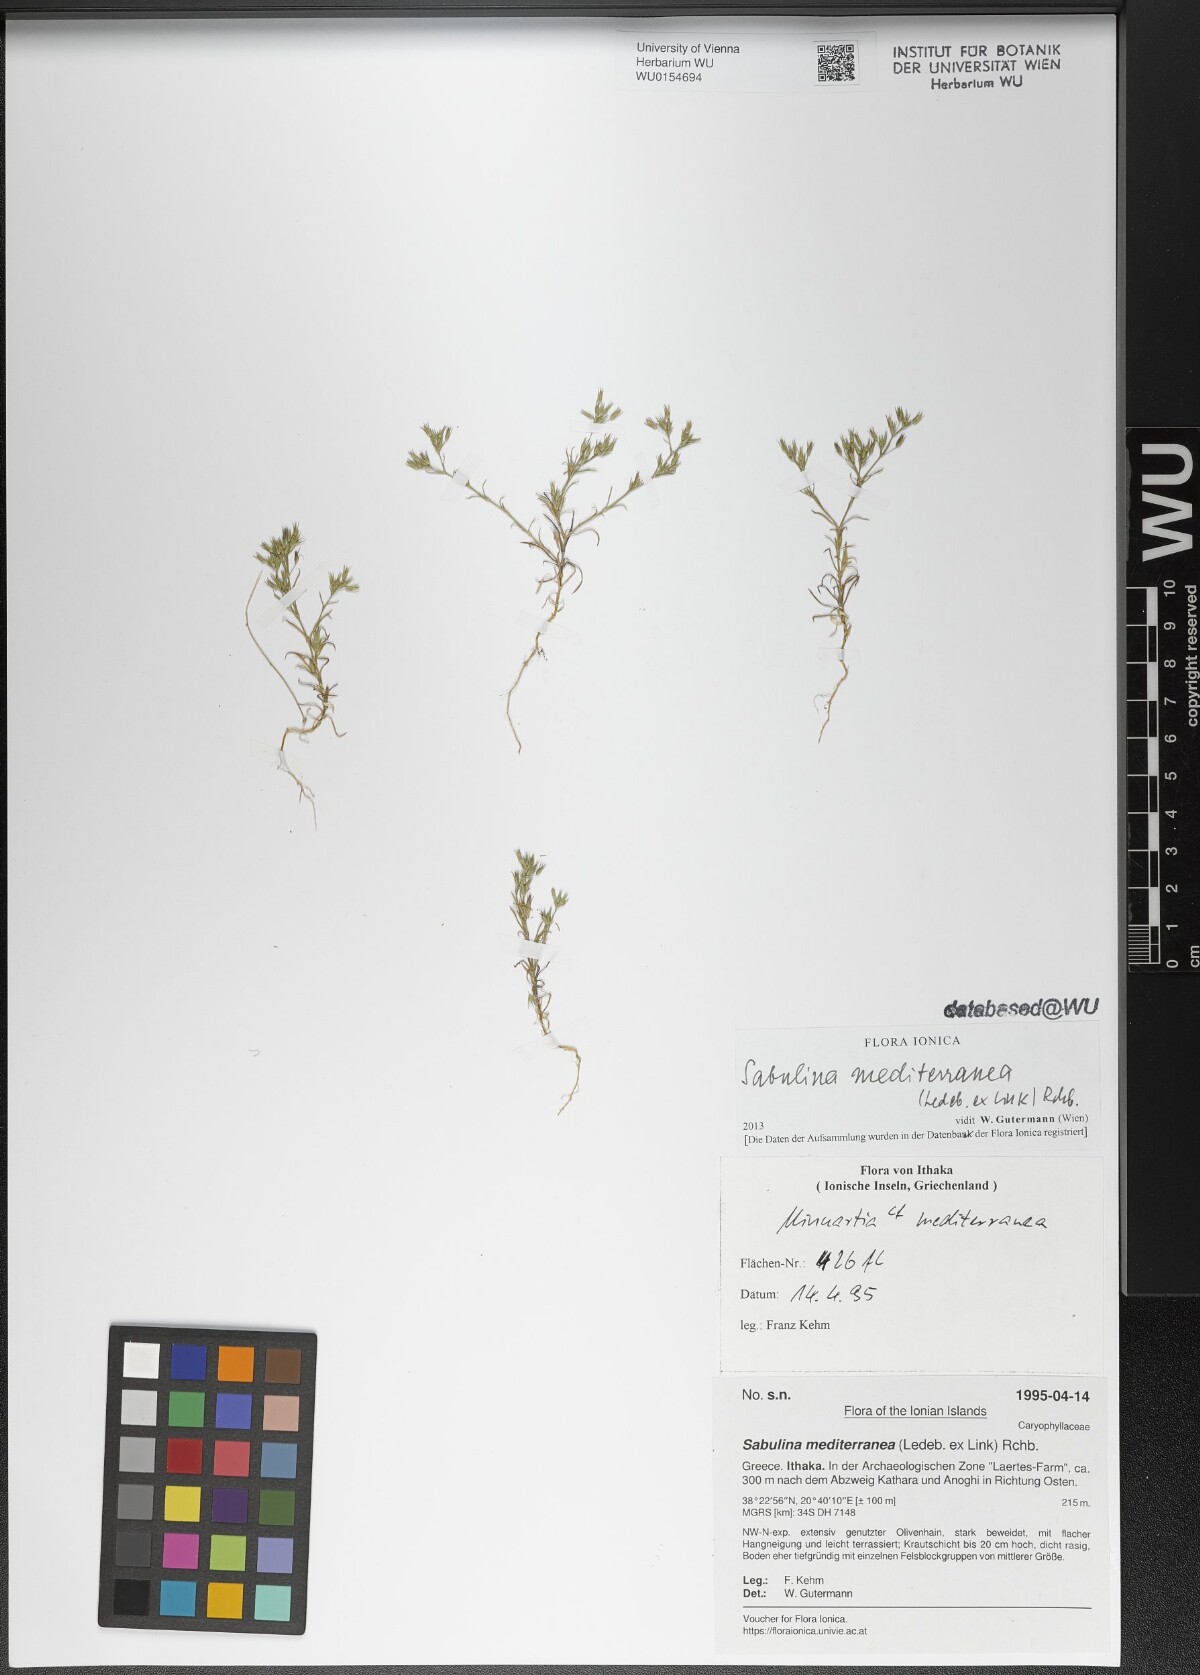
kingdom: Plantae
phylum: Tracheophyta
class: Magnoliopsida
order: Caryophyllales
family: Caryophyllaceae
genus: Sabulina
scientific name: Sabulina mediterranea
